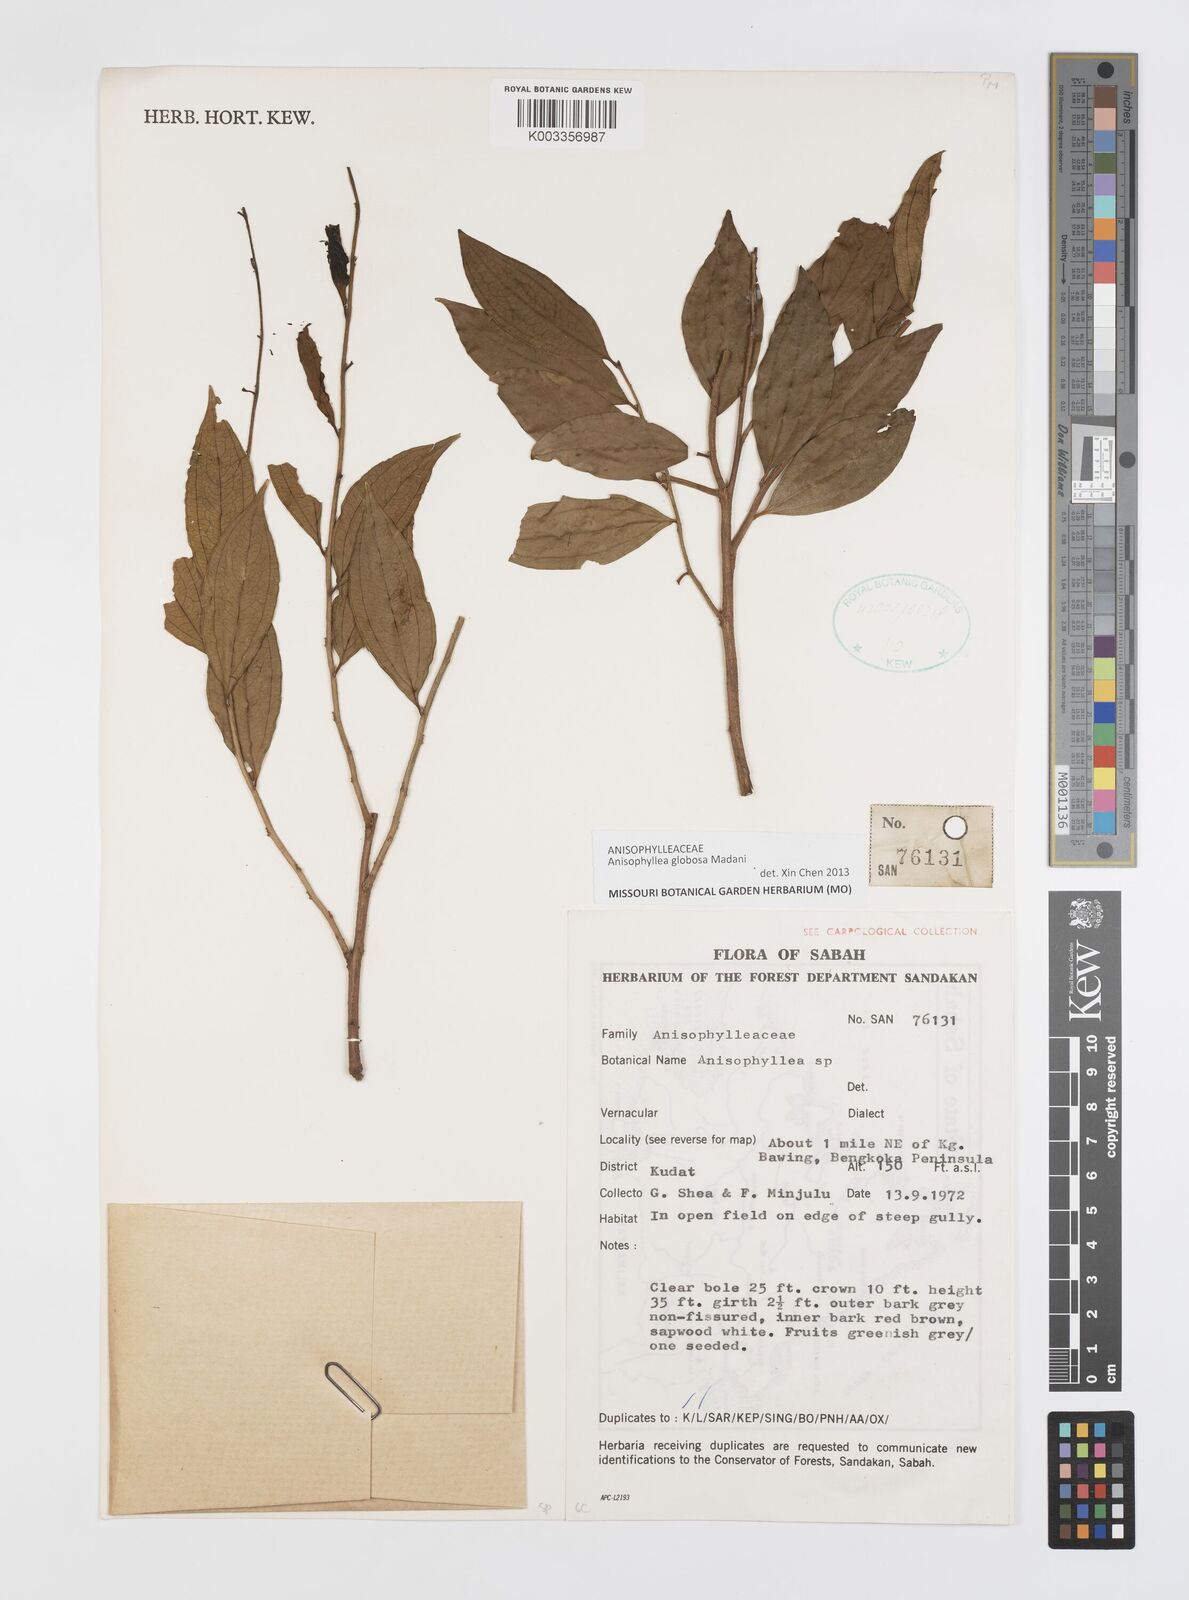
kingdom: Plantae
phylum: Tracheophyta
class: Magnoliopsida
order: Cucurbitales
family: Anisophylleaceae
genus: Anisophyllea
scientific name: Anisophyllea globosa
